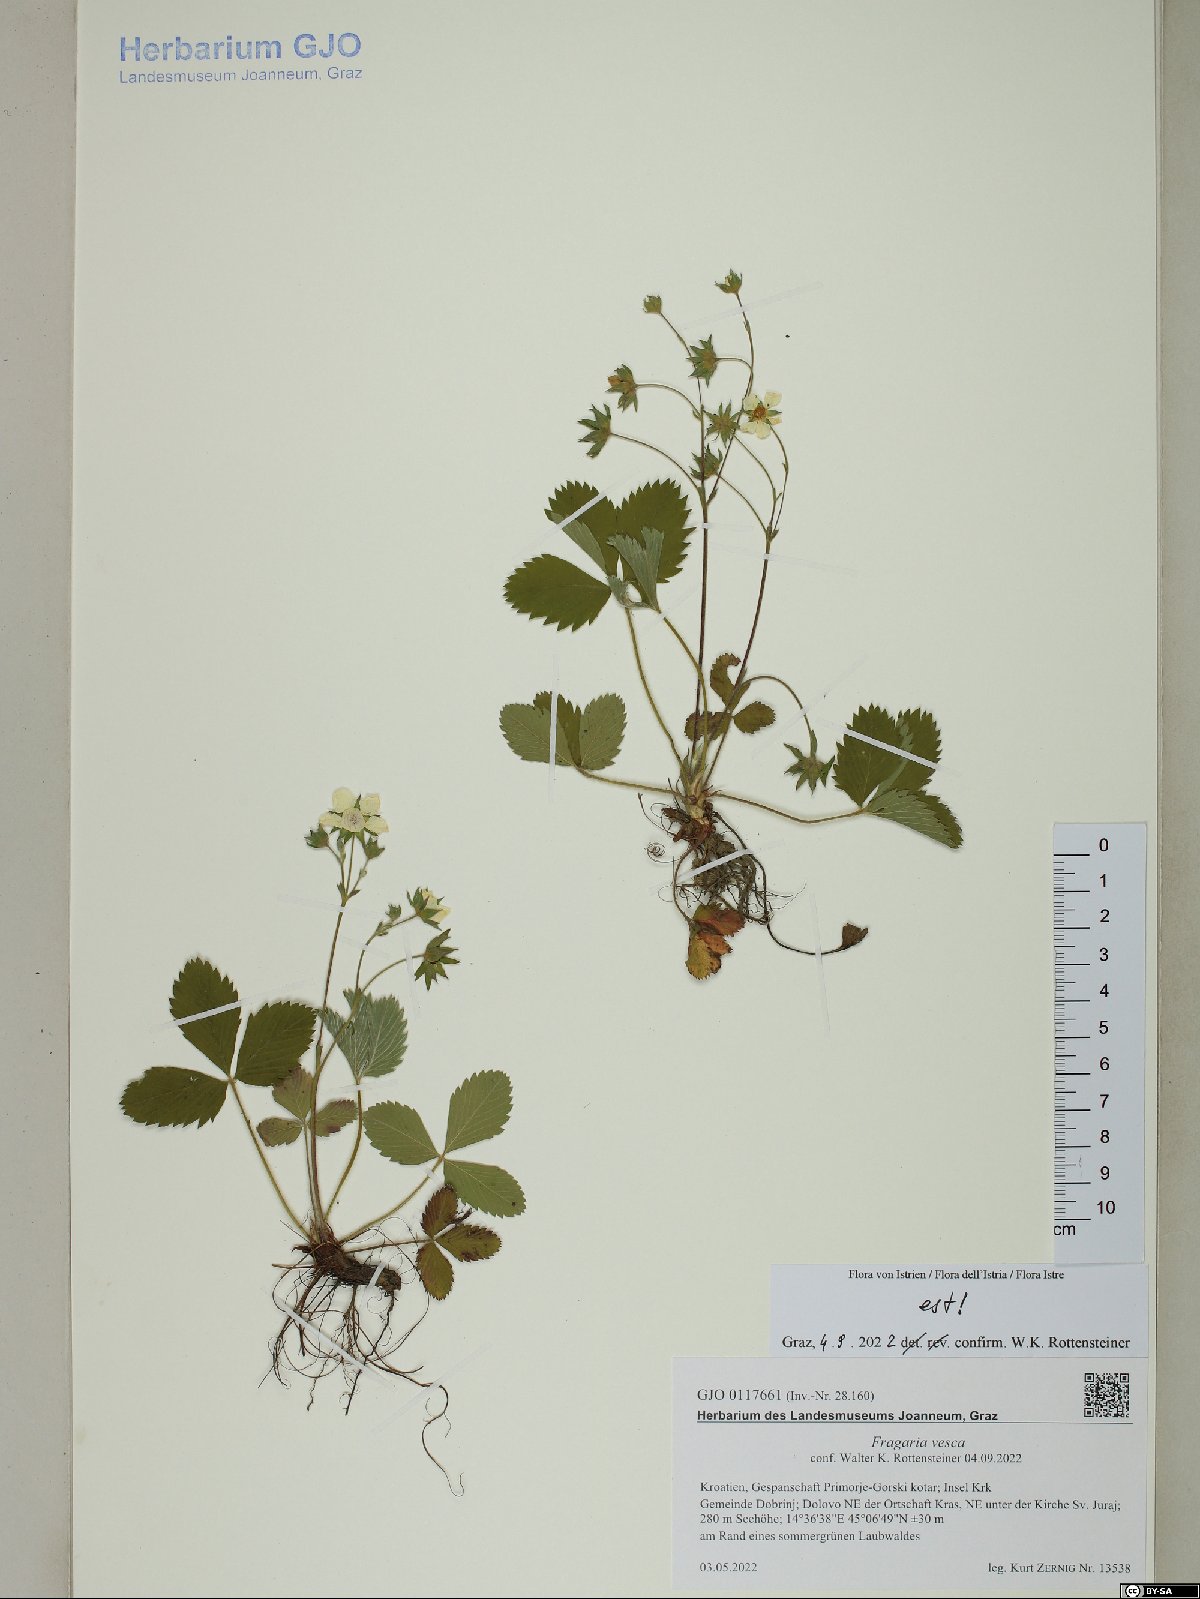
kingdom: Plantae
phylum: Tracheophyta
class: Magnoliopsida
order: Rosales
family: Rosaceae
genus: Fragaria
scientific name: Fragaria vesca
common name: Wild strawberry
